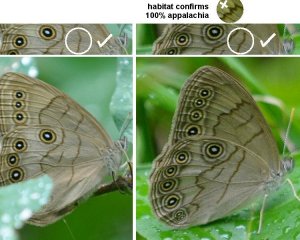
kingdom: Animalia
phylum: Arthropoda
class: Insecta
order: Lepidoptera
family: Nymphalidae
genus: Lethe
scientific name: Lethe eurydice
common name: Appalachian Eyed Brown
